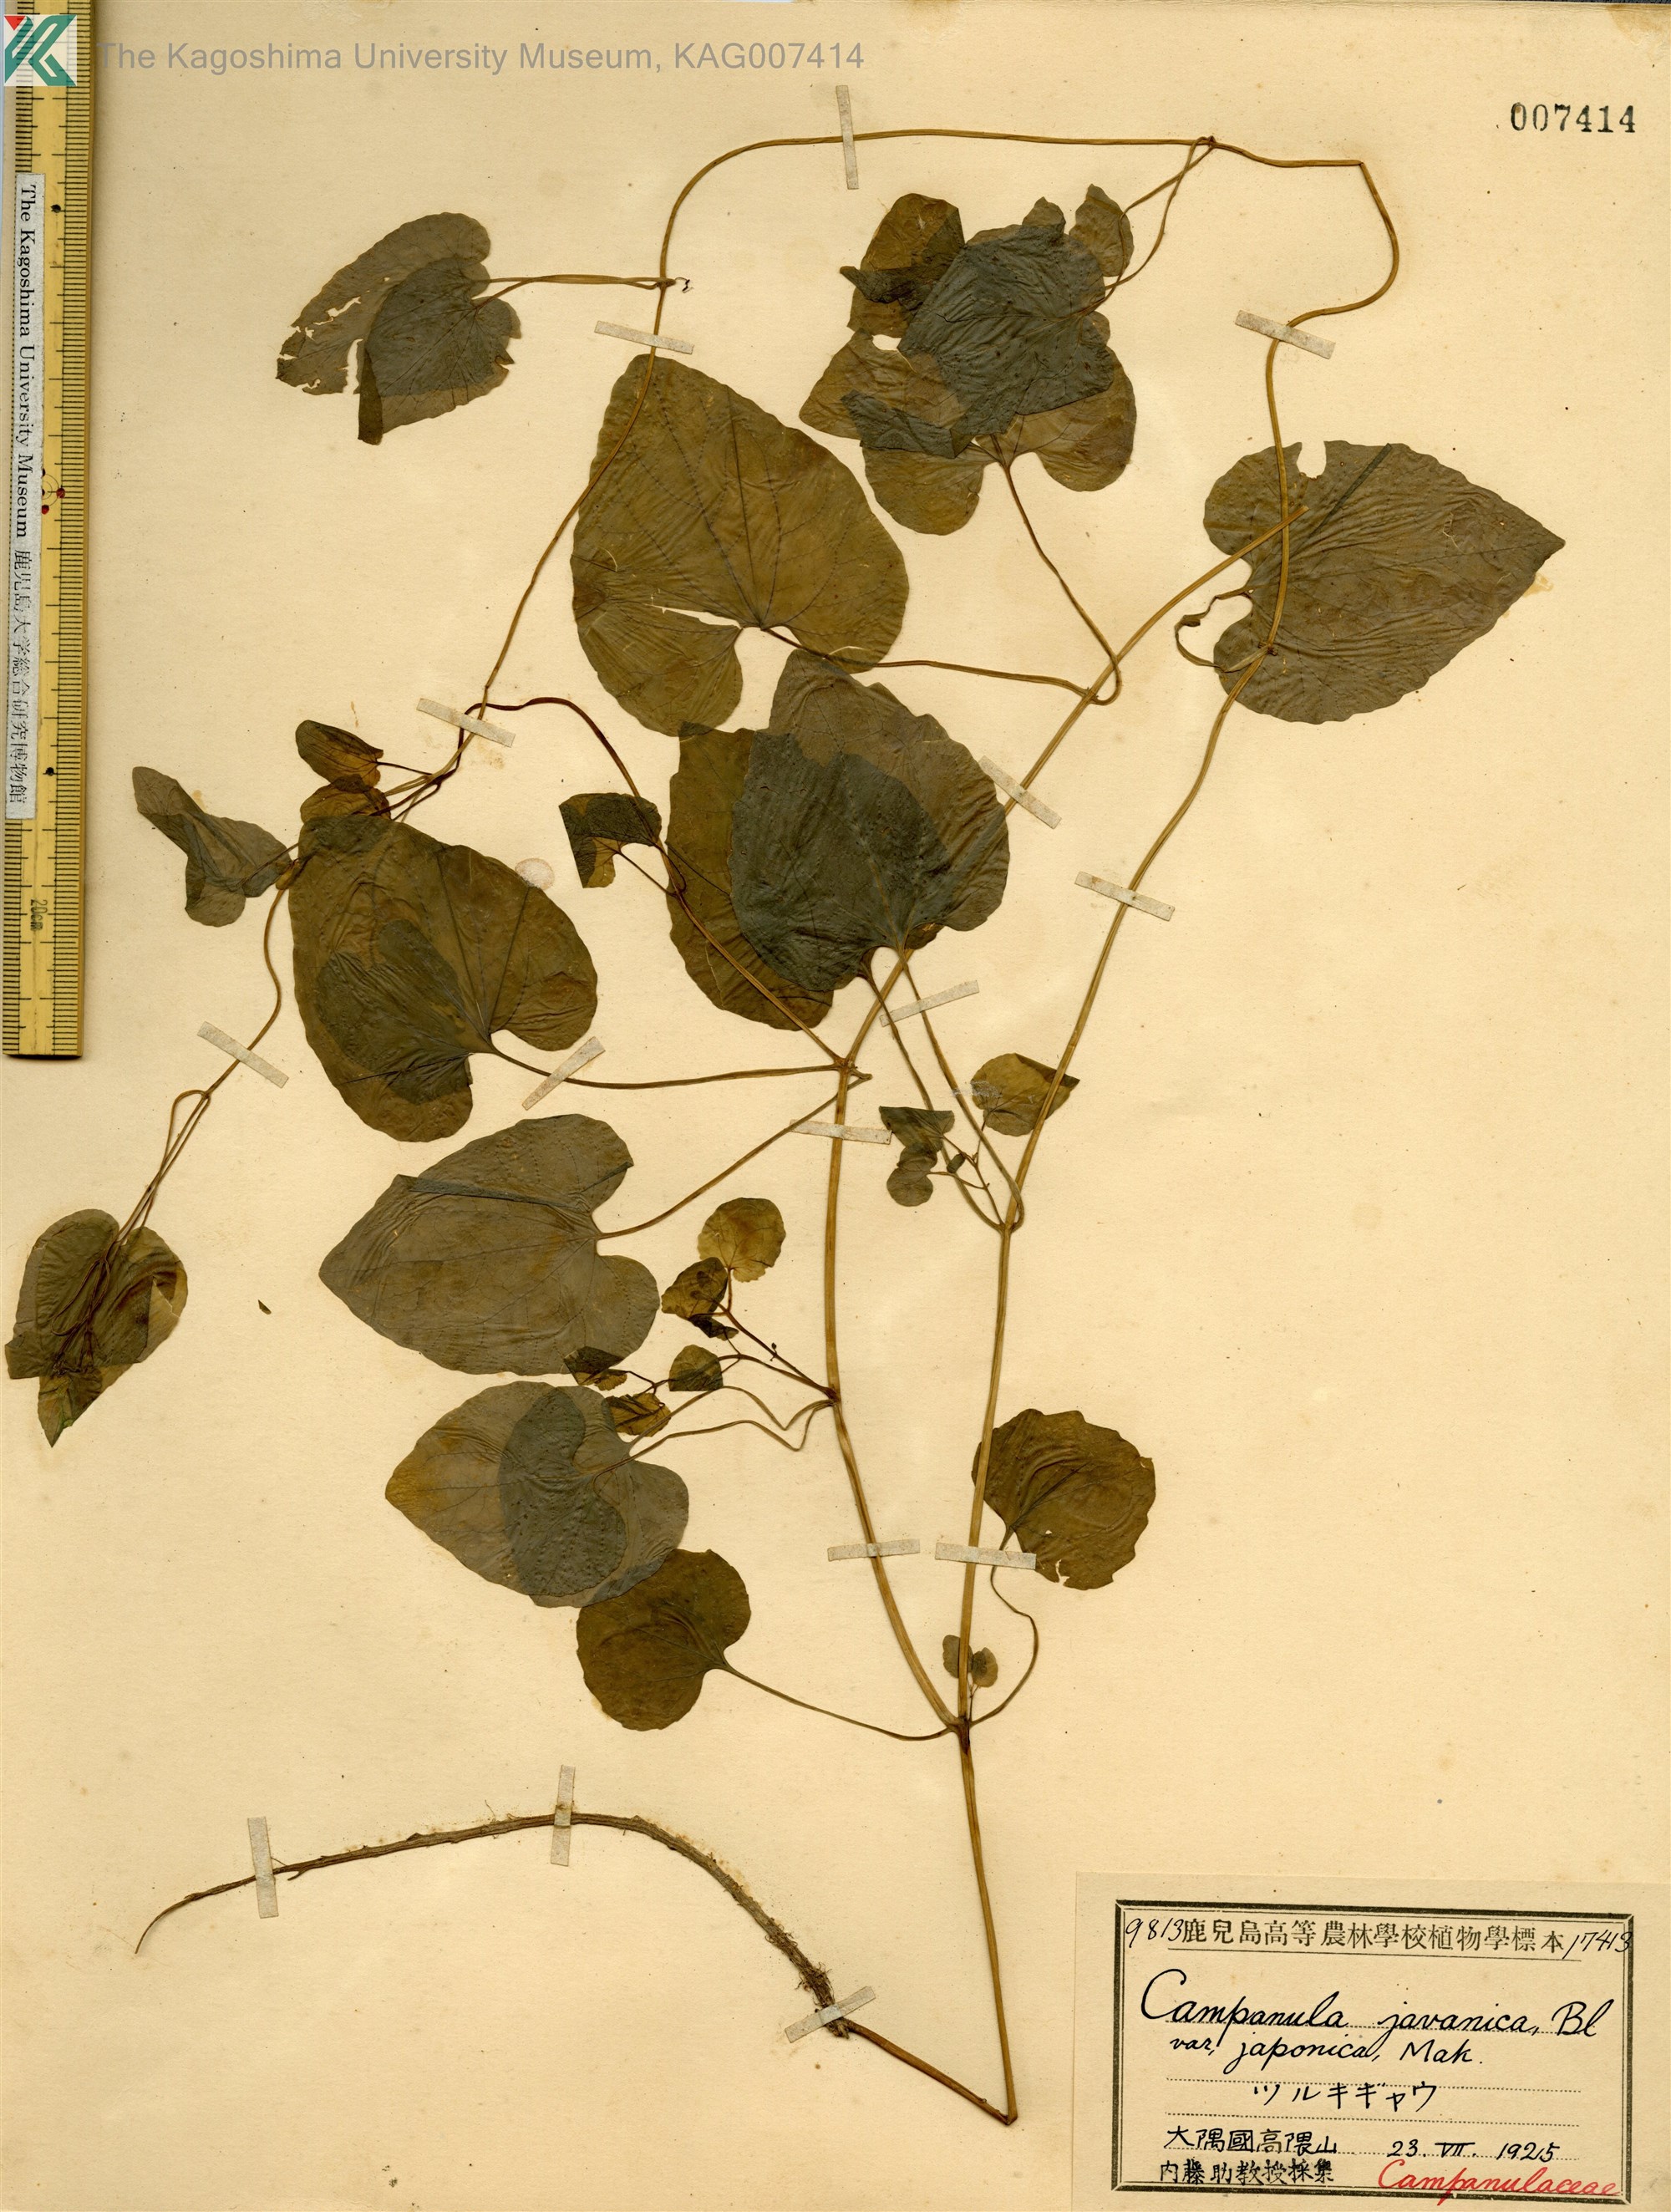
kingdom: Plantae
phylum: Tracheophyta
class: Magnoliopsida
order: Asterales
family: Campanulaceae
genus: Codonopsis
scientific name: Codonopsis javanica
